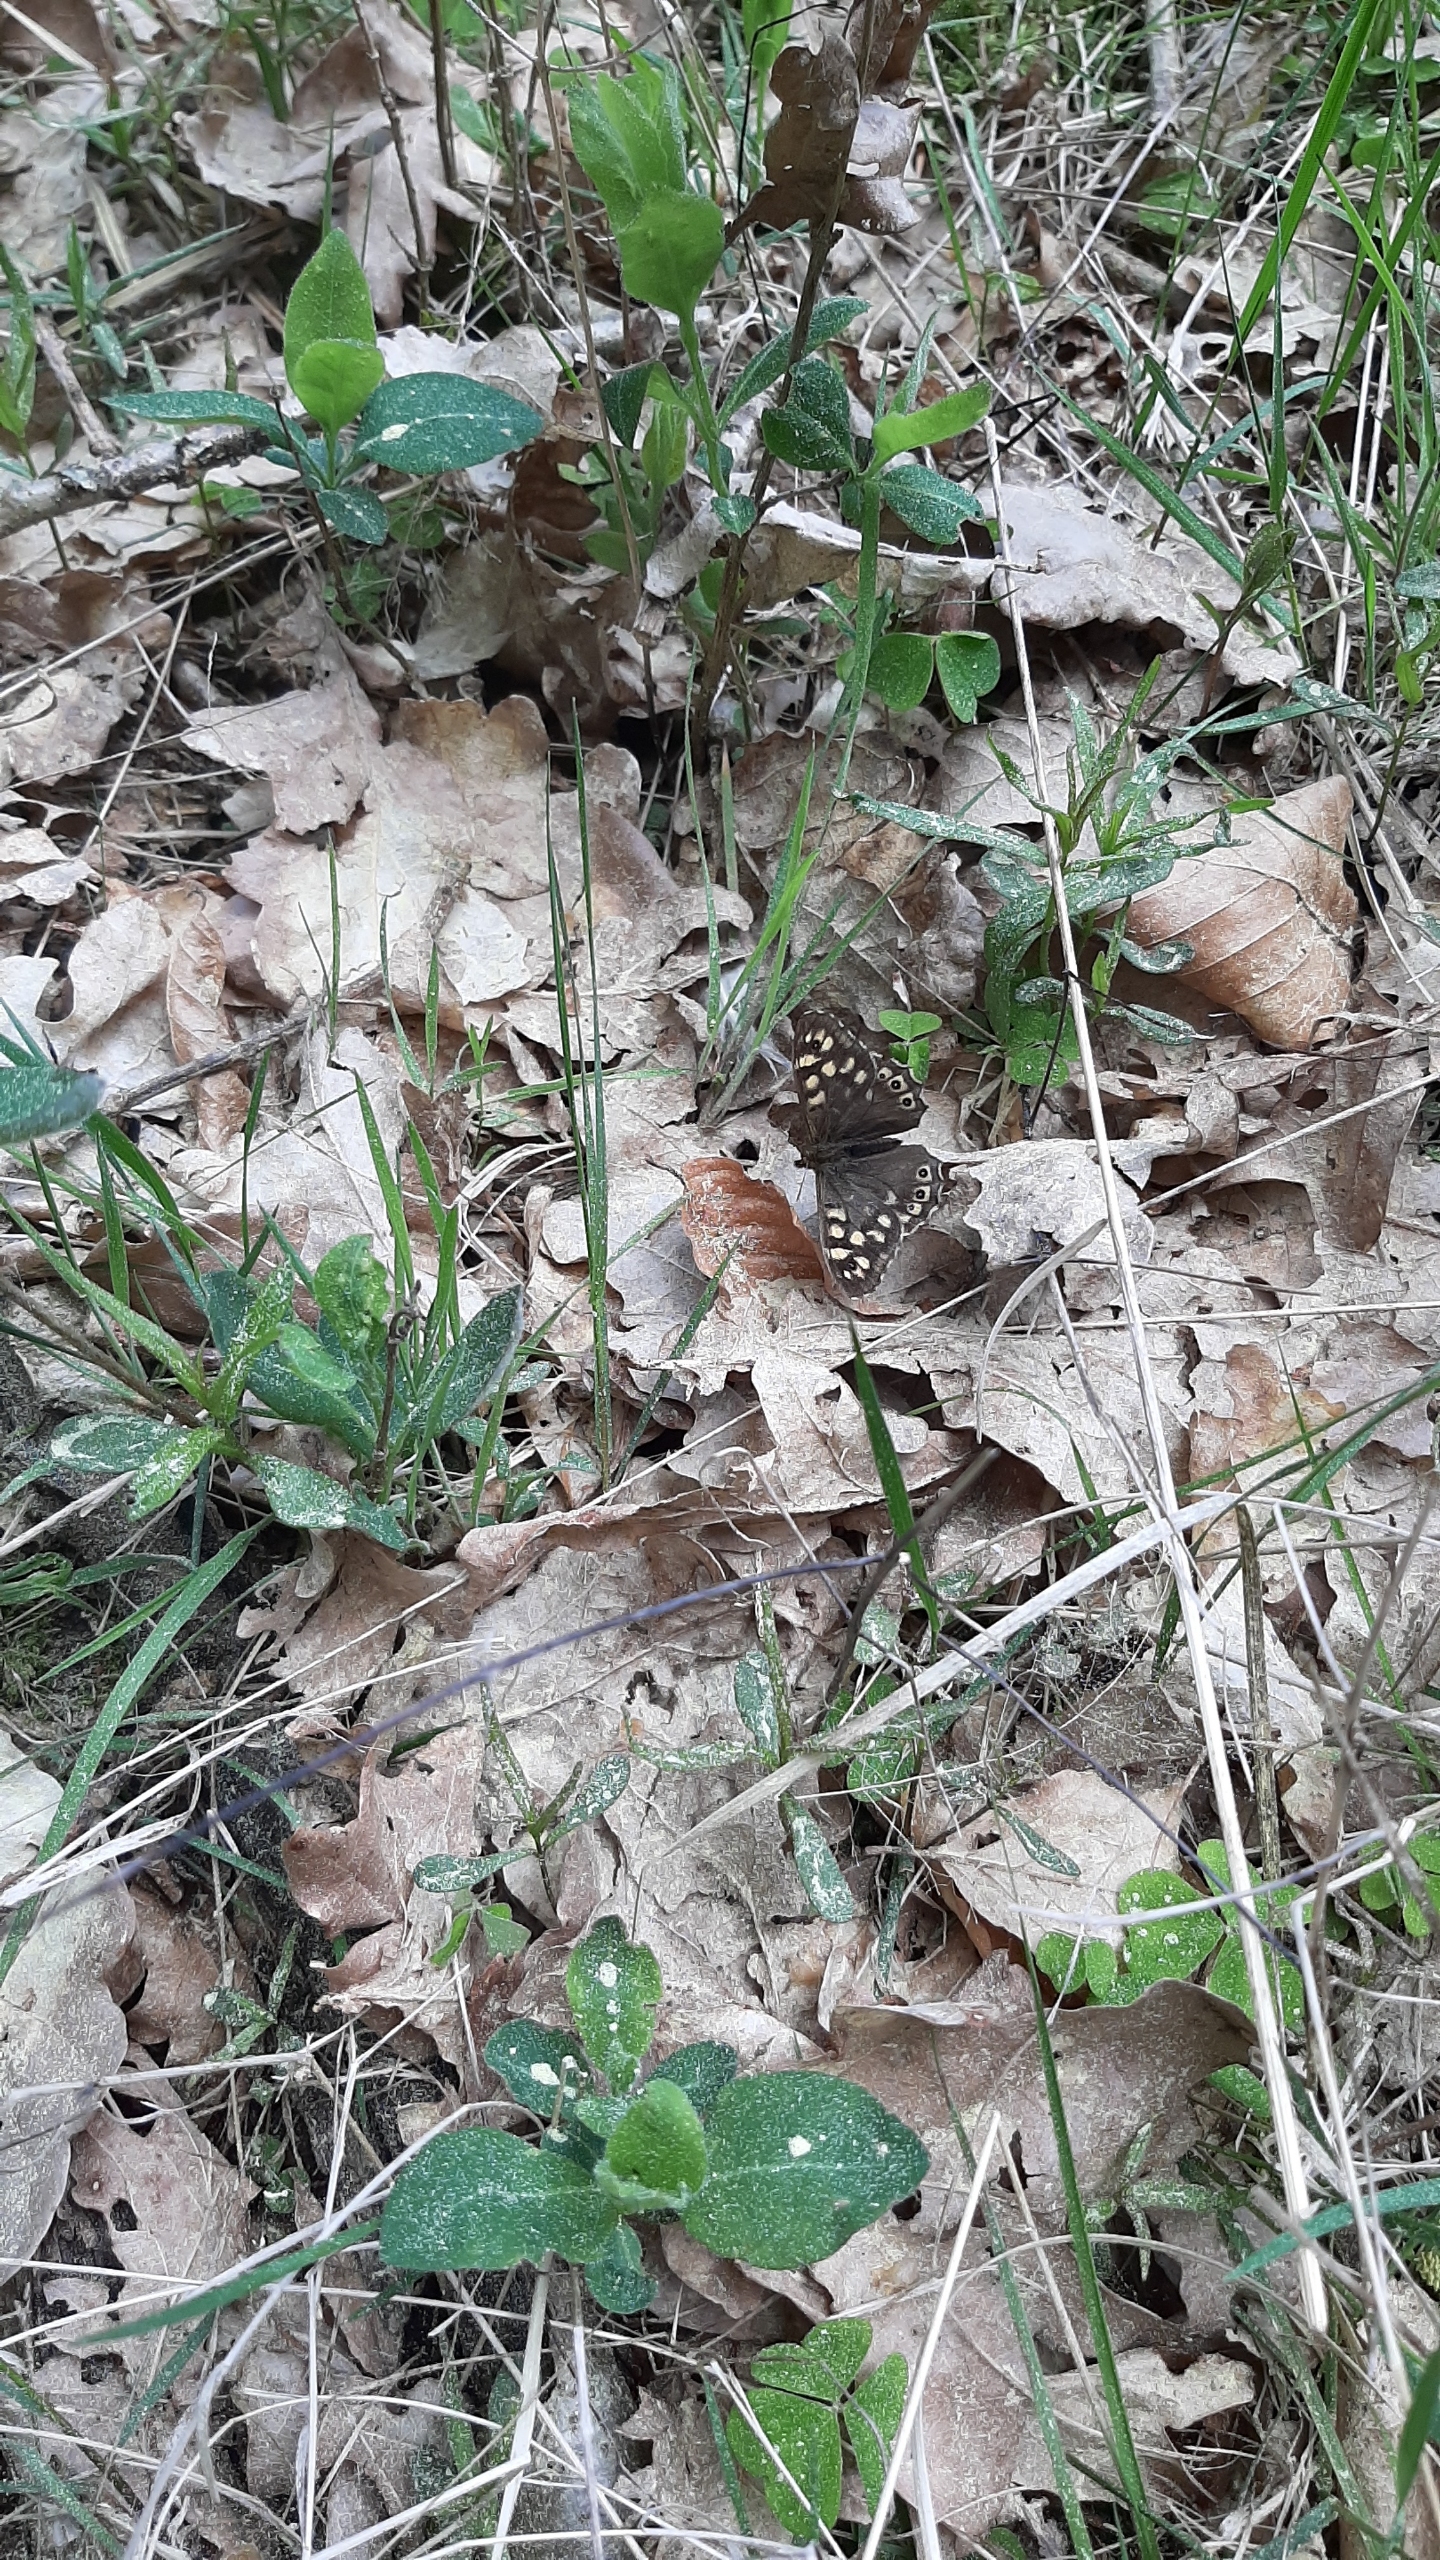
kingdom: Animalia
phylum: Arthropoda
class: Insecta
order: Lepidoptera
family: Nymphalidae
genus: Pararge
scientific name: Pararge aegeria
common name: Skovrandøje
